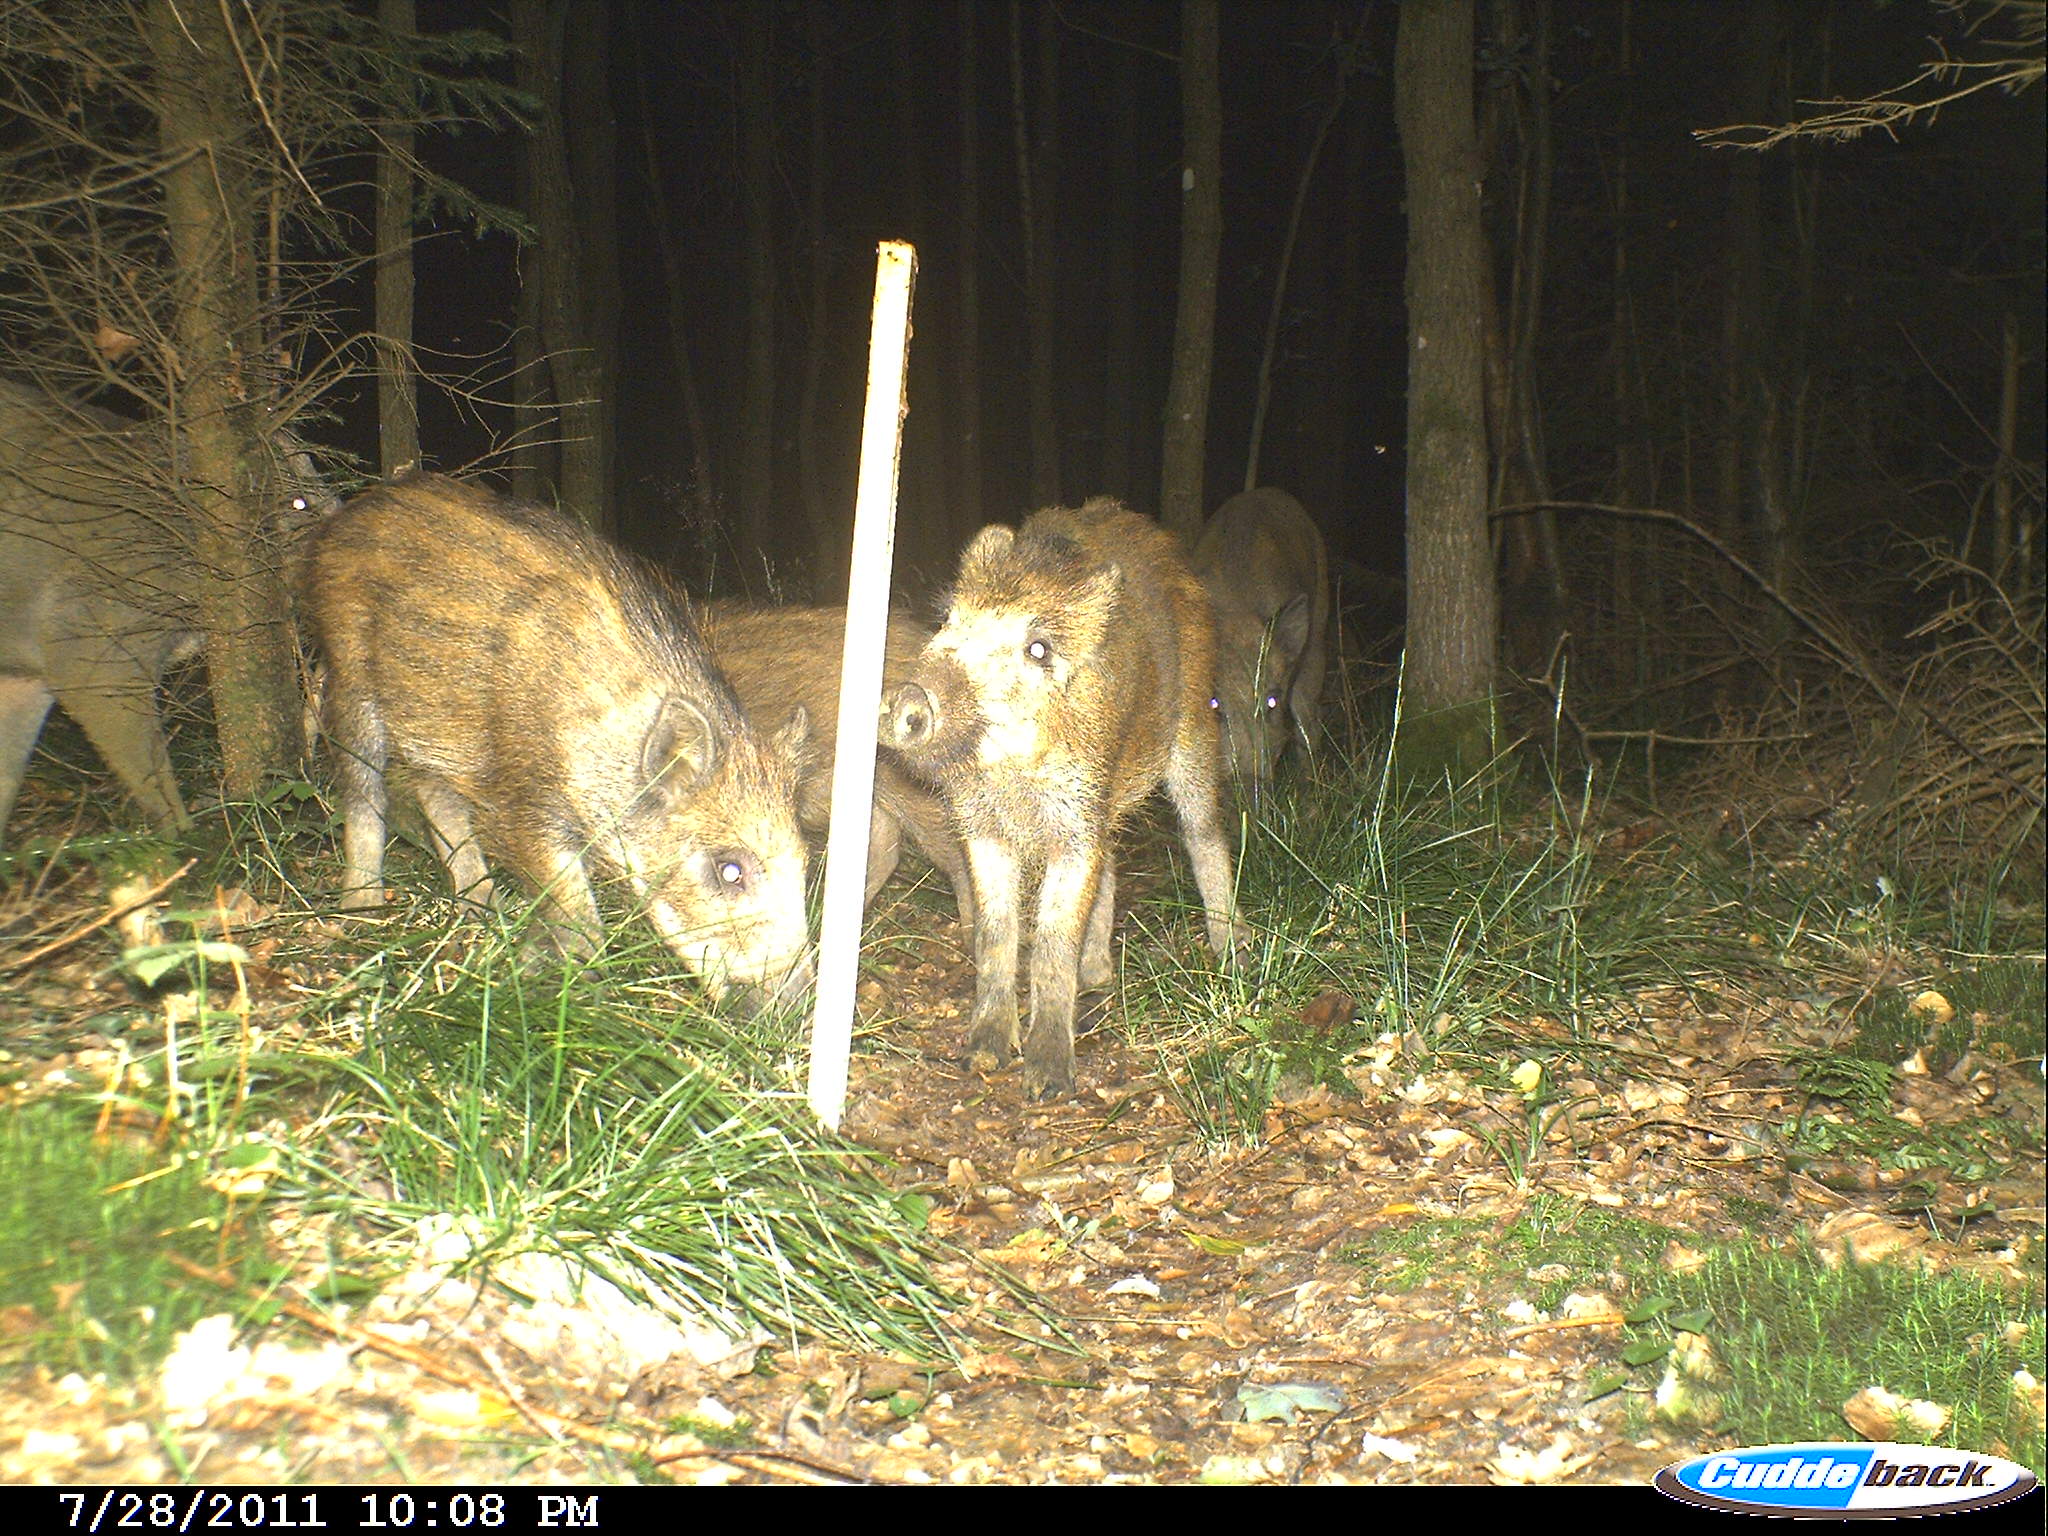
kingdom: Animalia
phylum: Chordata
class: Mammalia
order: Artiodactyla
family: Suidae
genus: Sus
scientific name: Sus scrofa
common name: Wild boar
